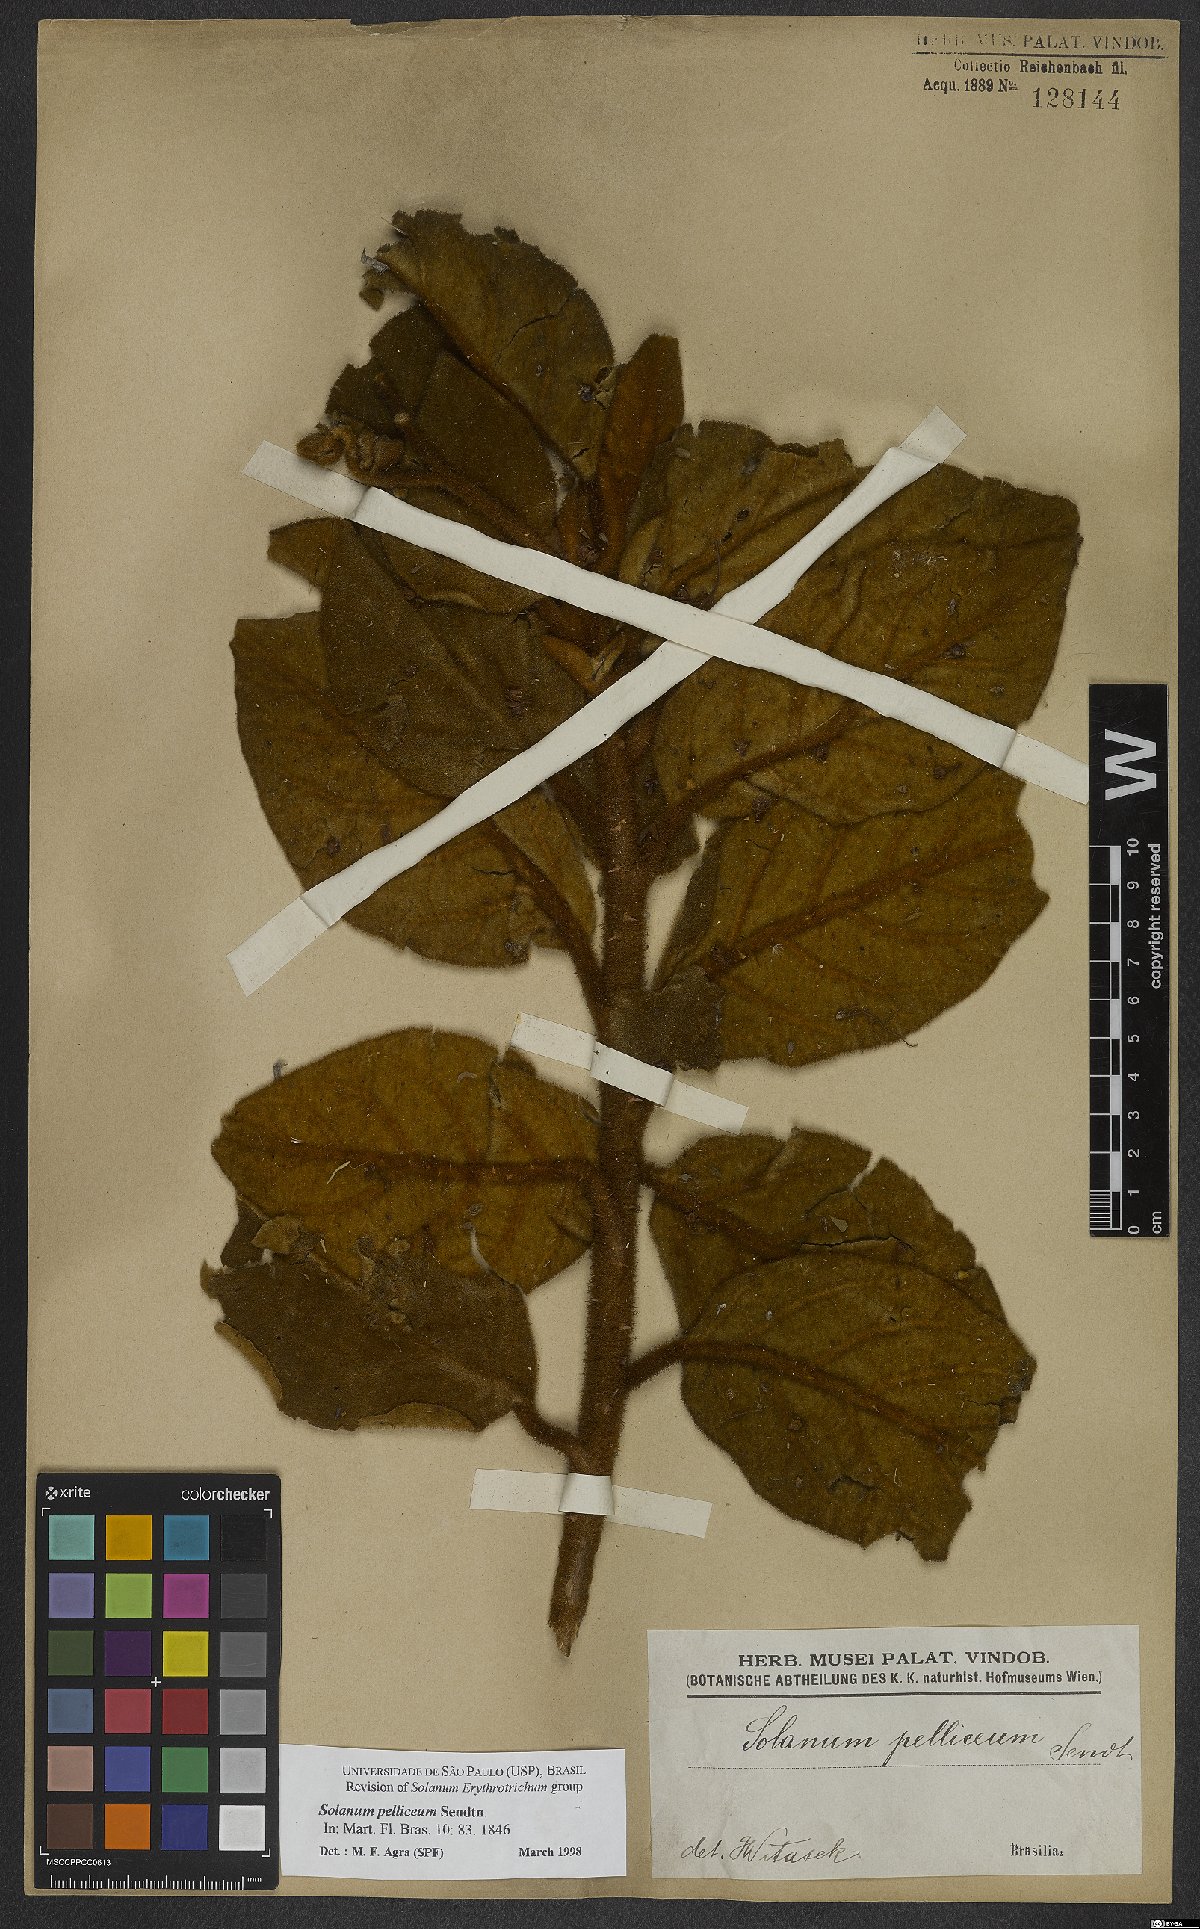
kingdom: Plantae
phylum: Tracheophyta
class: Magnoliopsida
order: Solanales
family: Solanaceae
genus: Solanum
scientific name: Solanum velleum
